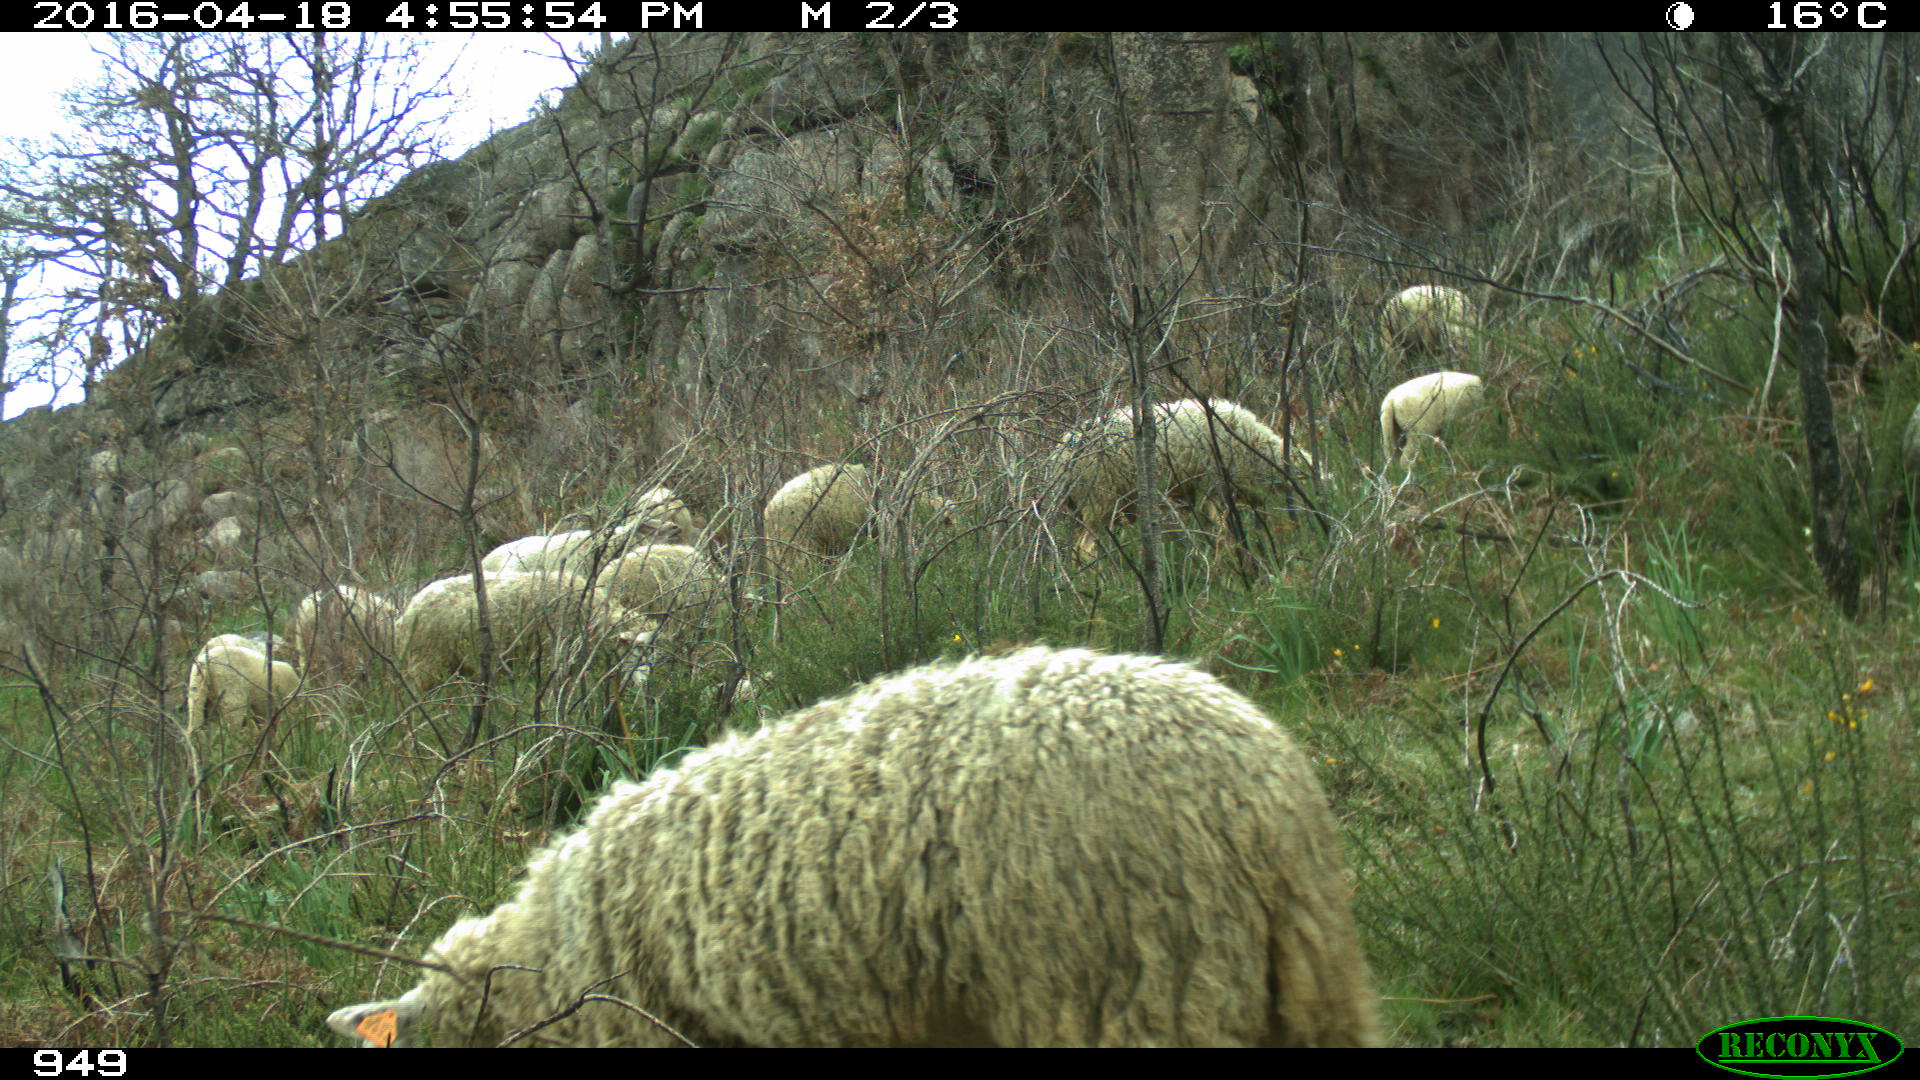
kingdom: Animalia
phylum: Chordata
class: Mammalia
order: Artiodactyla
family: Bovidae
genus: Ovis
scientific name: Ovis aries
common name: Domestic sheep
